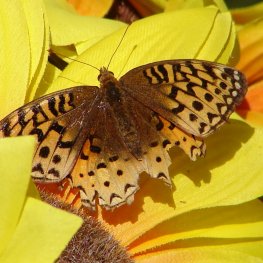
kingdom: Animalia
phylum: Arthropoda
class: Insecta
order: Lepidoptera
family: Nymphalidae
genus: Speyeria
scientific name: Speyeria cybele
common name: Great Spangled Fritillary
